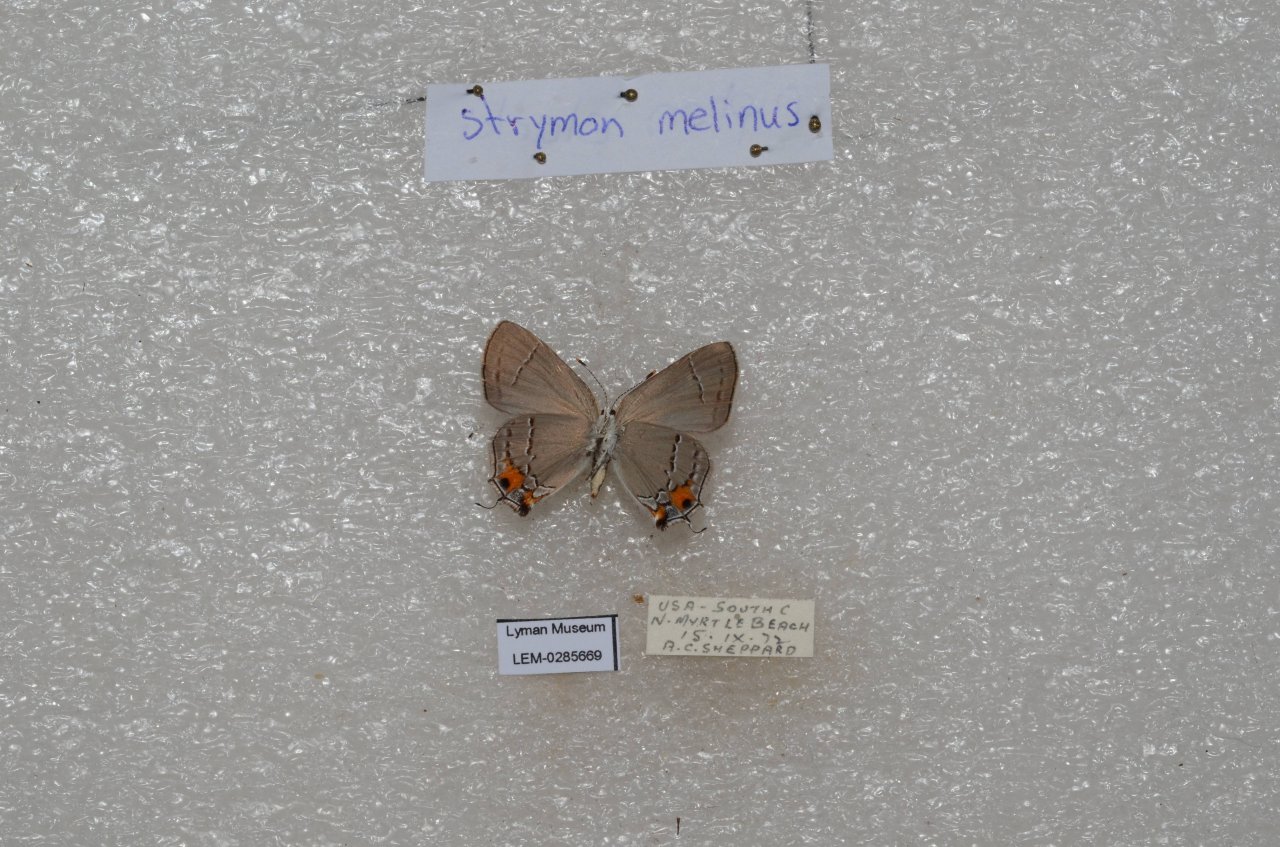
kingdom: Animalia
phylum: Arthropoda
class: Insecta
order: Lepidoptera
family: Lycaenidae
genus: Strymon
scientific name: Strymon melinus
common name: Gray Hairstreak
